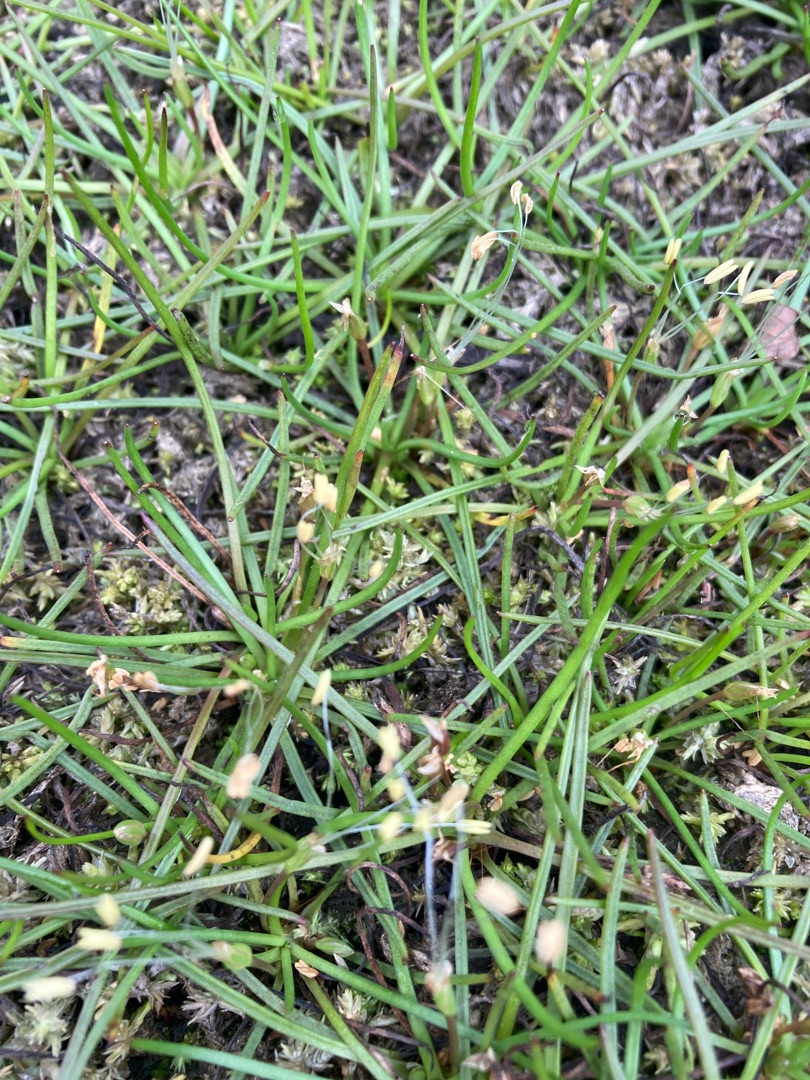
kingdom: Plantae
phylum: Tracheophyta
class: Magnoliopsida
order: Lamiales
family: Plantaginaceae
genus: Littorella
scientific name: Littorella uniflora
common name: Strandbo
